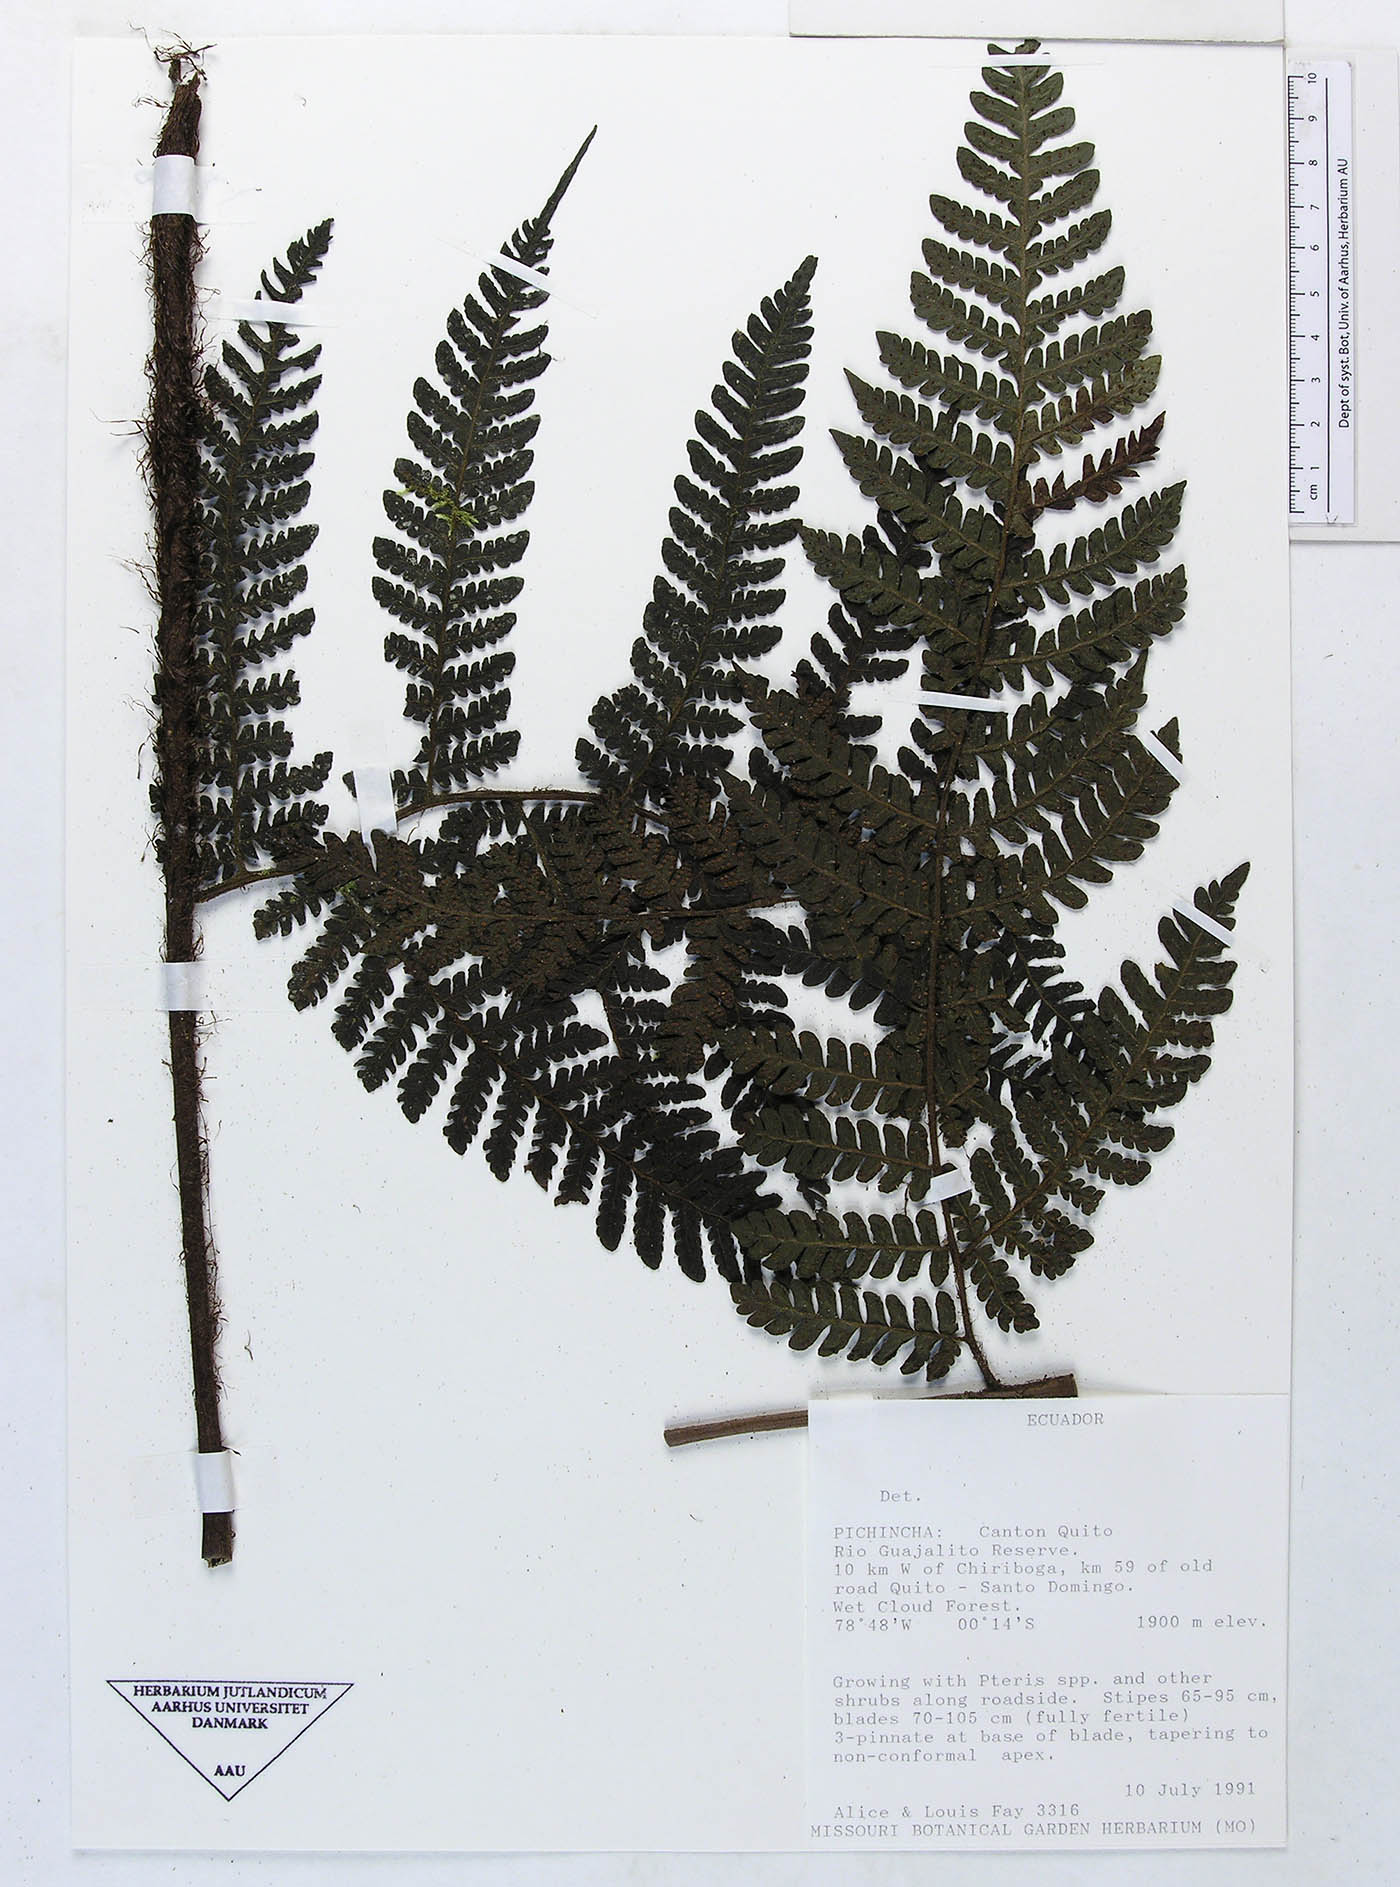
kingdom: Plantae
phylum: Tracheophyta
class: Polypodiopsida
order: Polypodiales
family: Dryopteridaceae
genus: Megalastrum
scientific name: Megalastrum vastum
